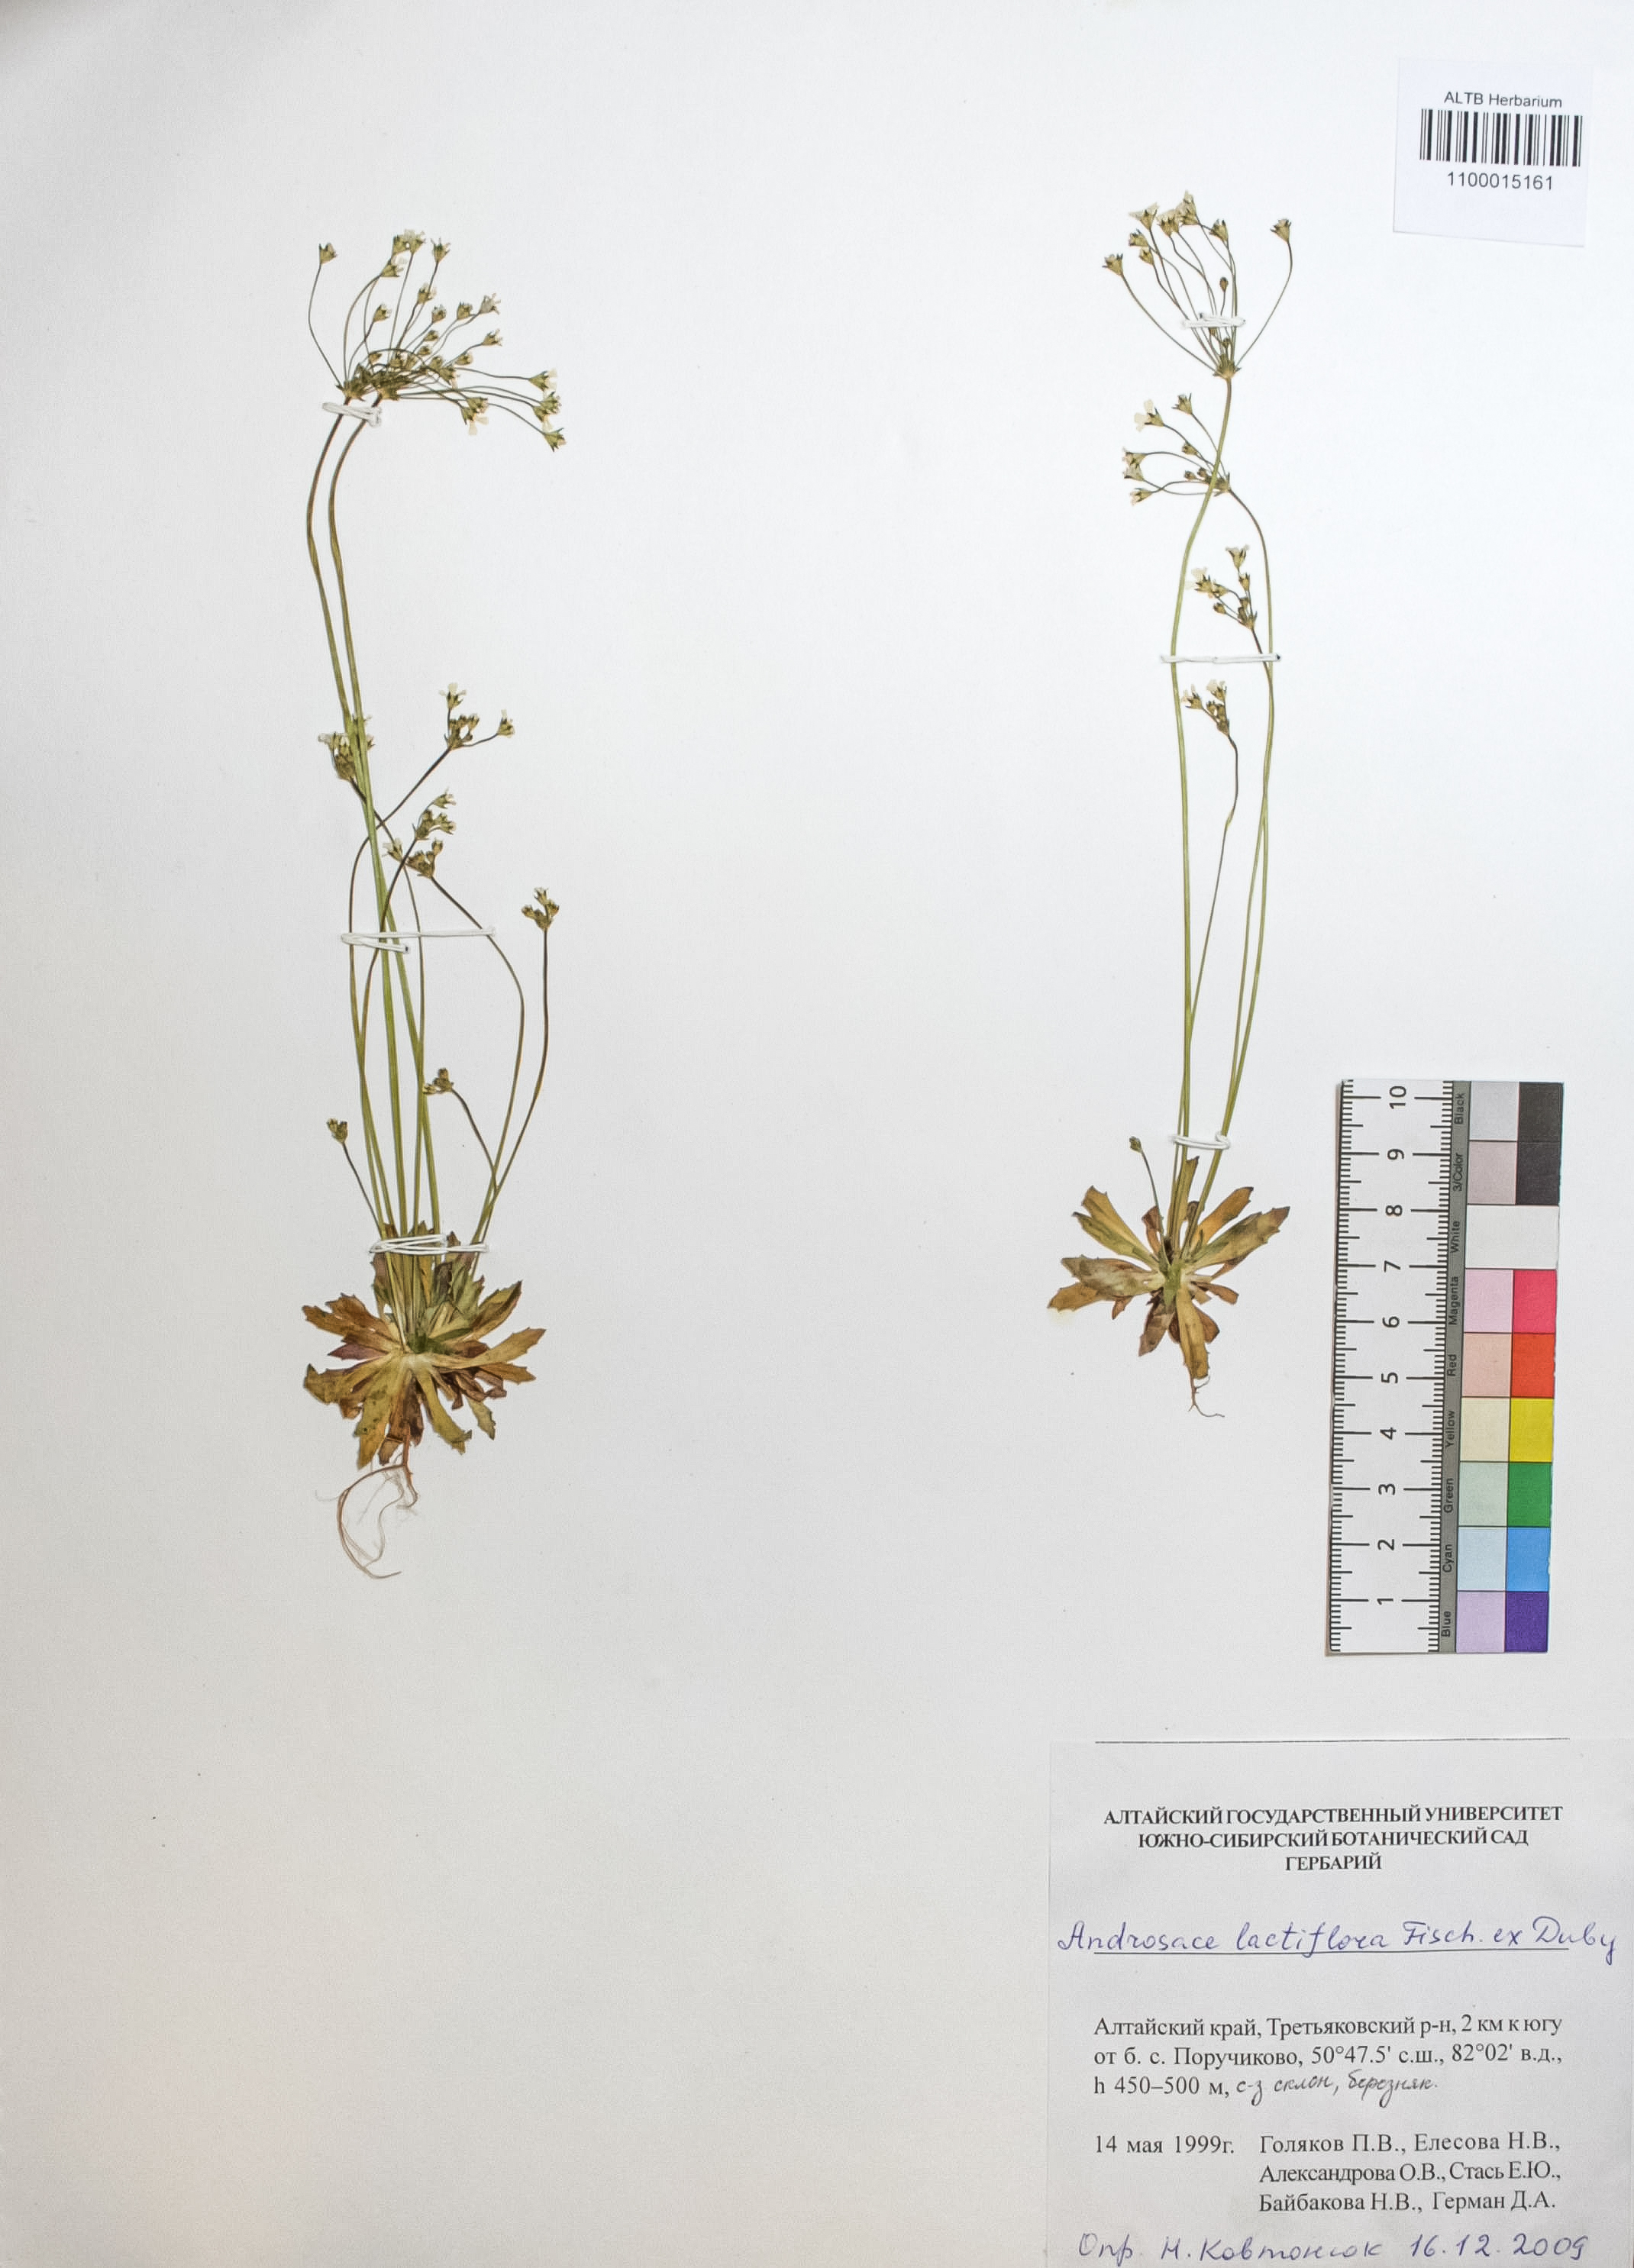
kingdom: Plantae
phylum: Tracheophyta
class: Magnoliopsida
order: Ericales
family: Primulaceae
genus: Androsace
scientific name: Androsace lactiflora
